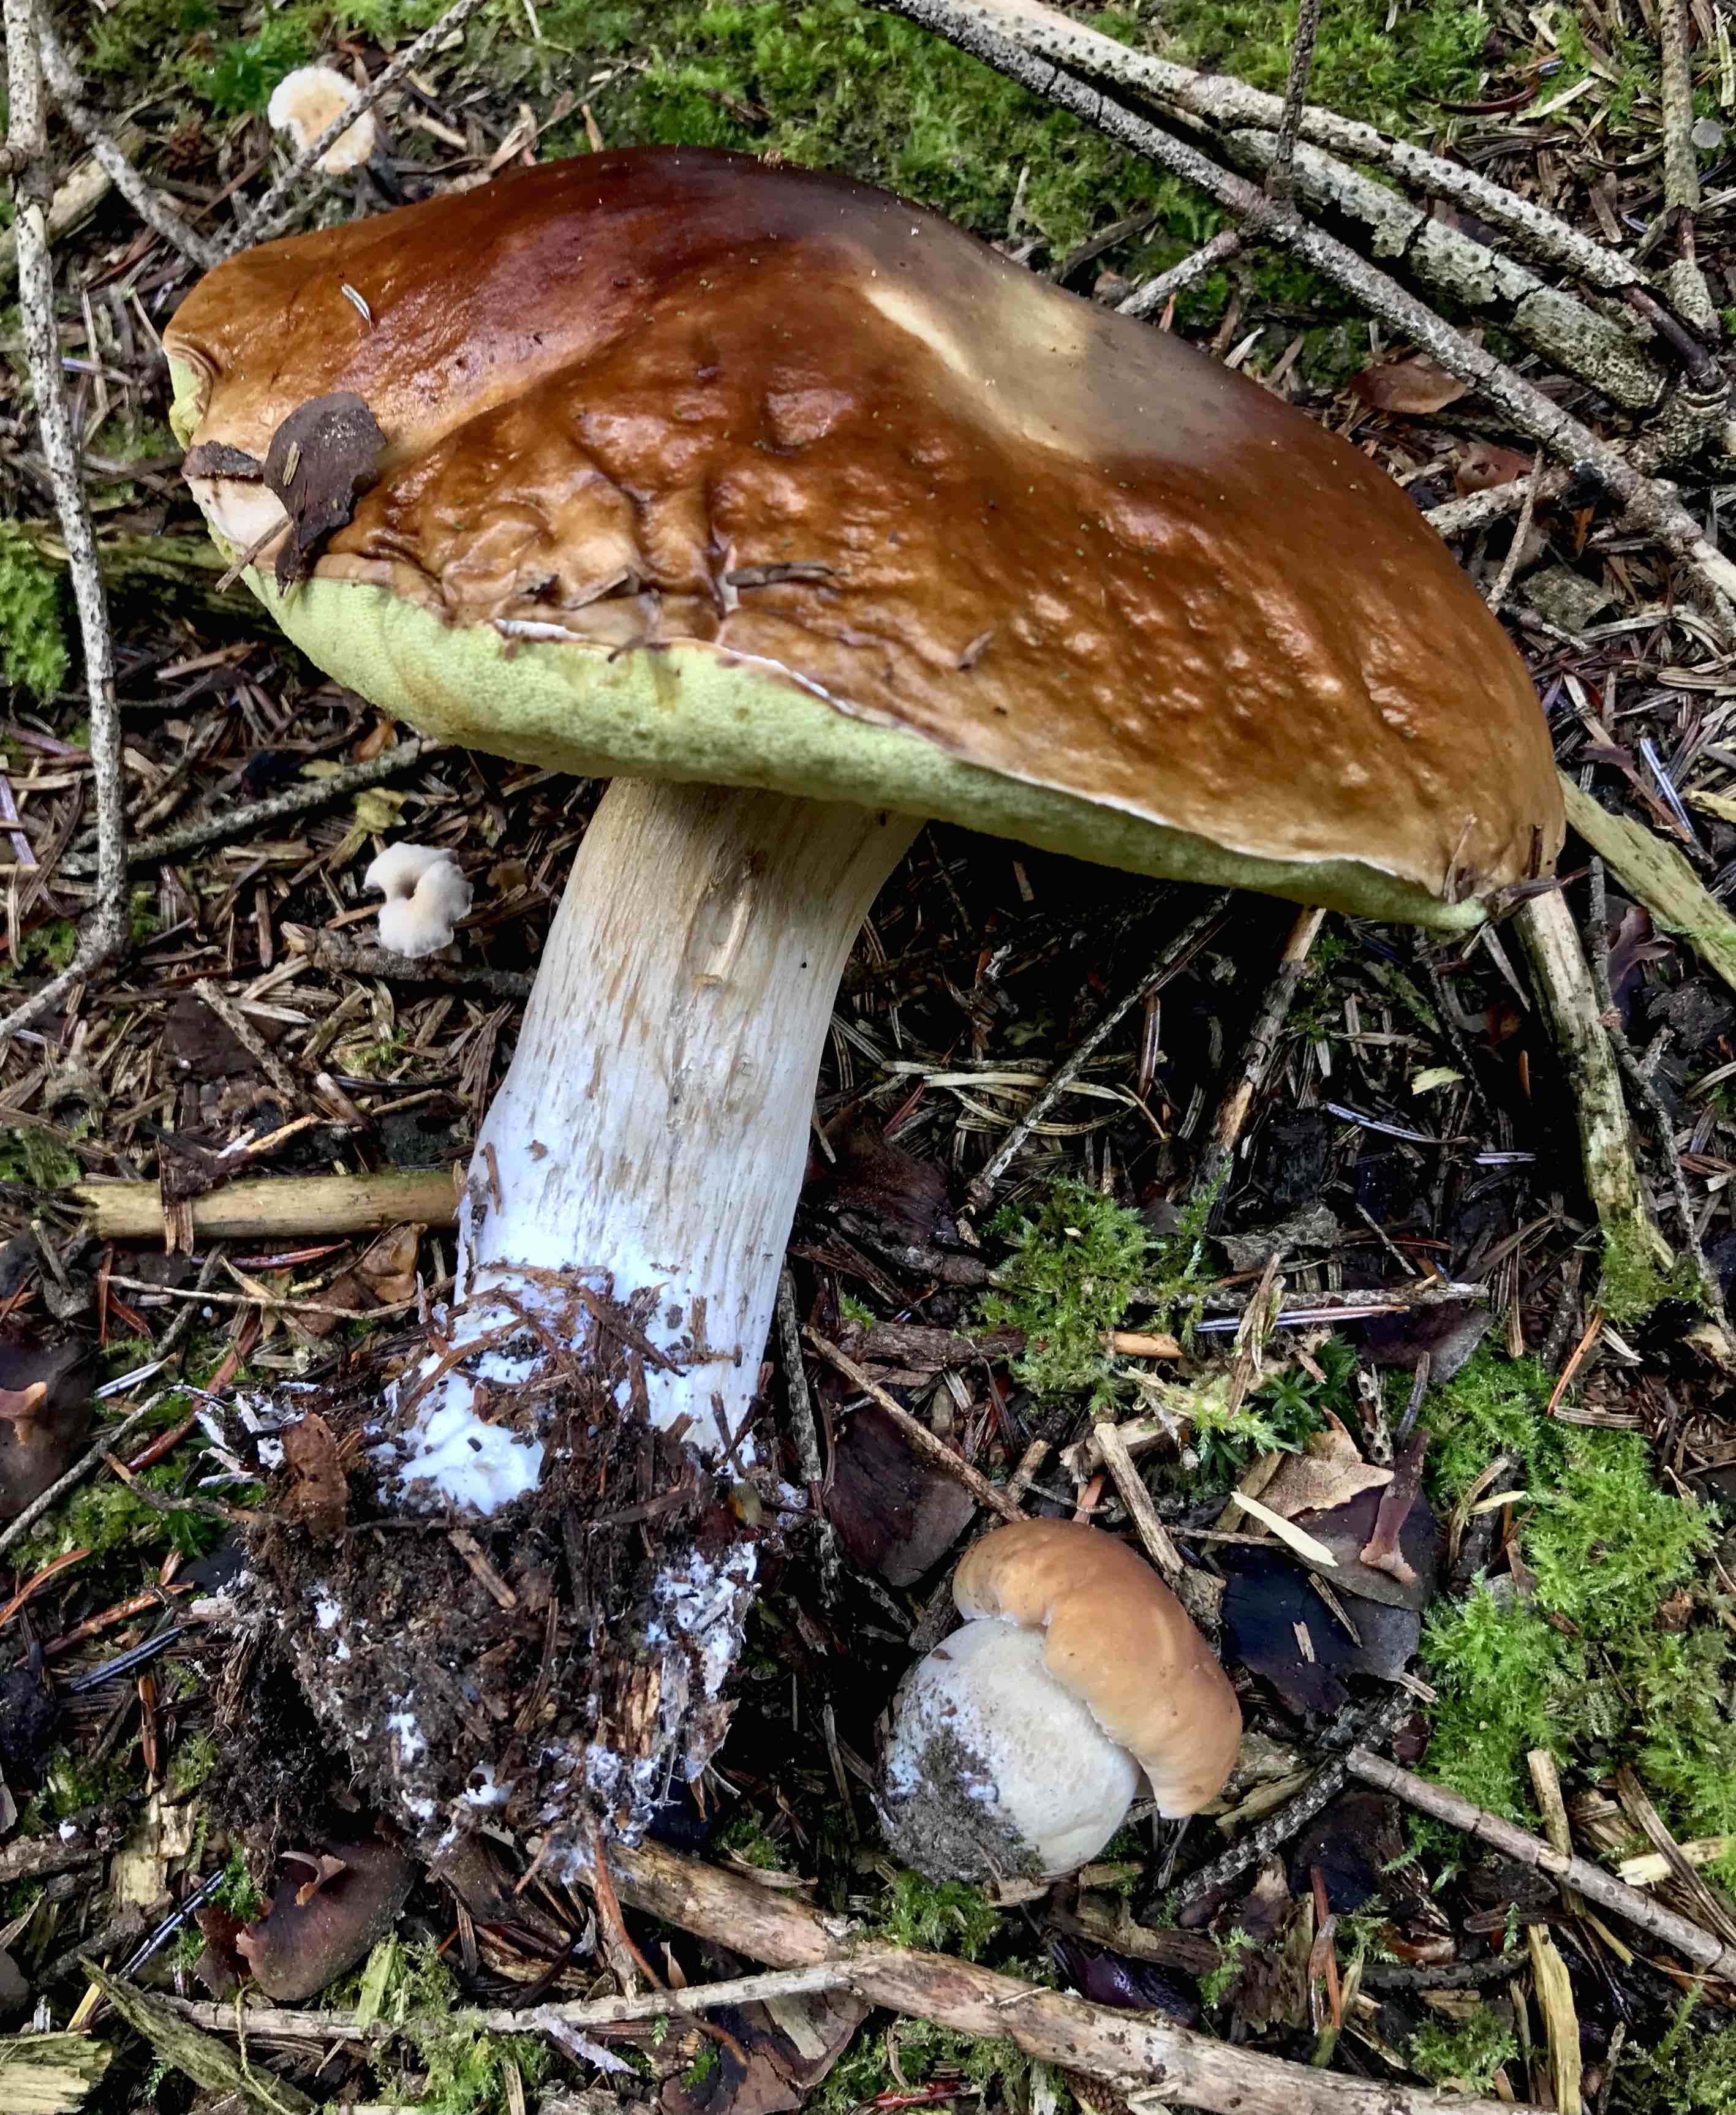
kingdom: Fungi
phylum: Basidiomycota
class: Agaricomycetes
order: Boletales
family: Boletaceae
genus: Boletus
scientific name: Boletus edulis
